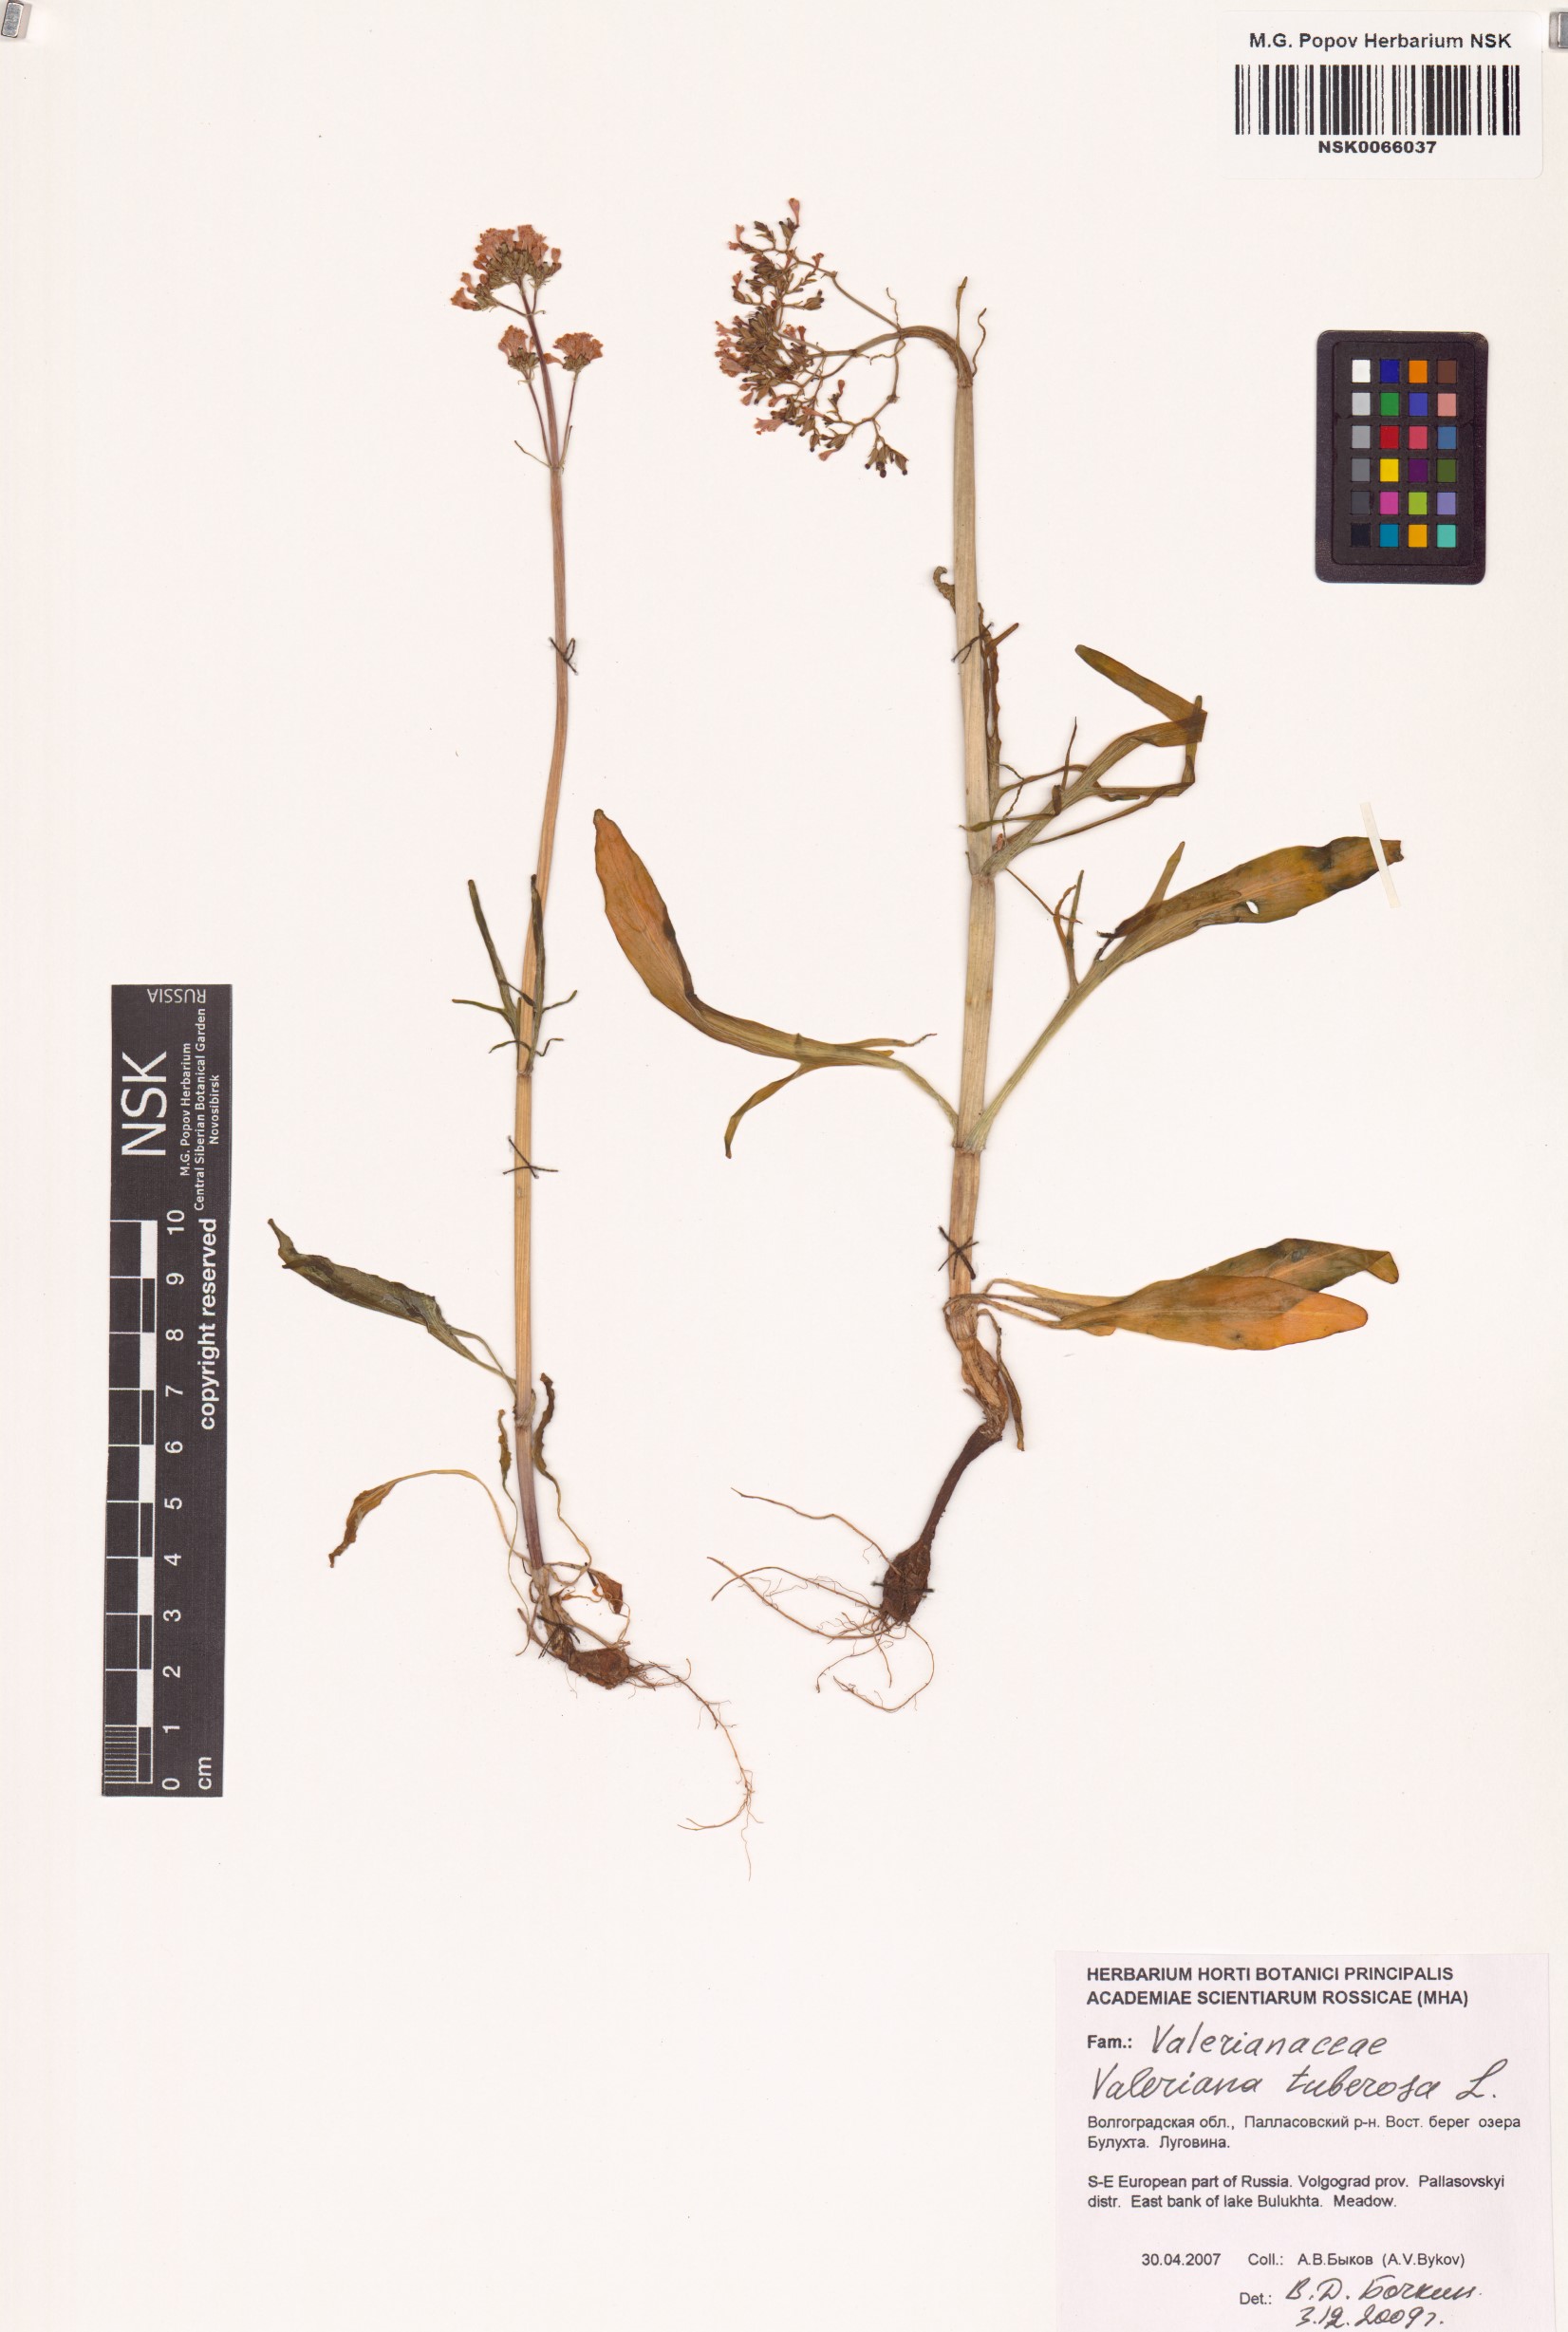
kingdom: Plantae
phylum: Tracheophyta
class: Magnoliopsida
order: Dipsacales
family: Caprifoliaceae
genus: Valeriana
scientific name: Valeriana tuberosa
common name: Tuberous valerian
